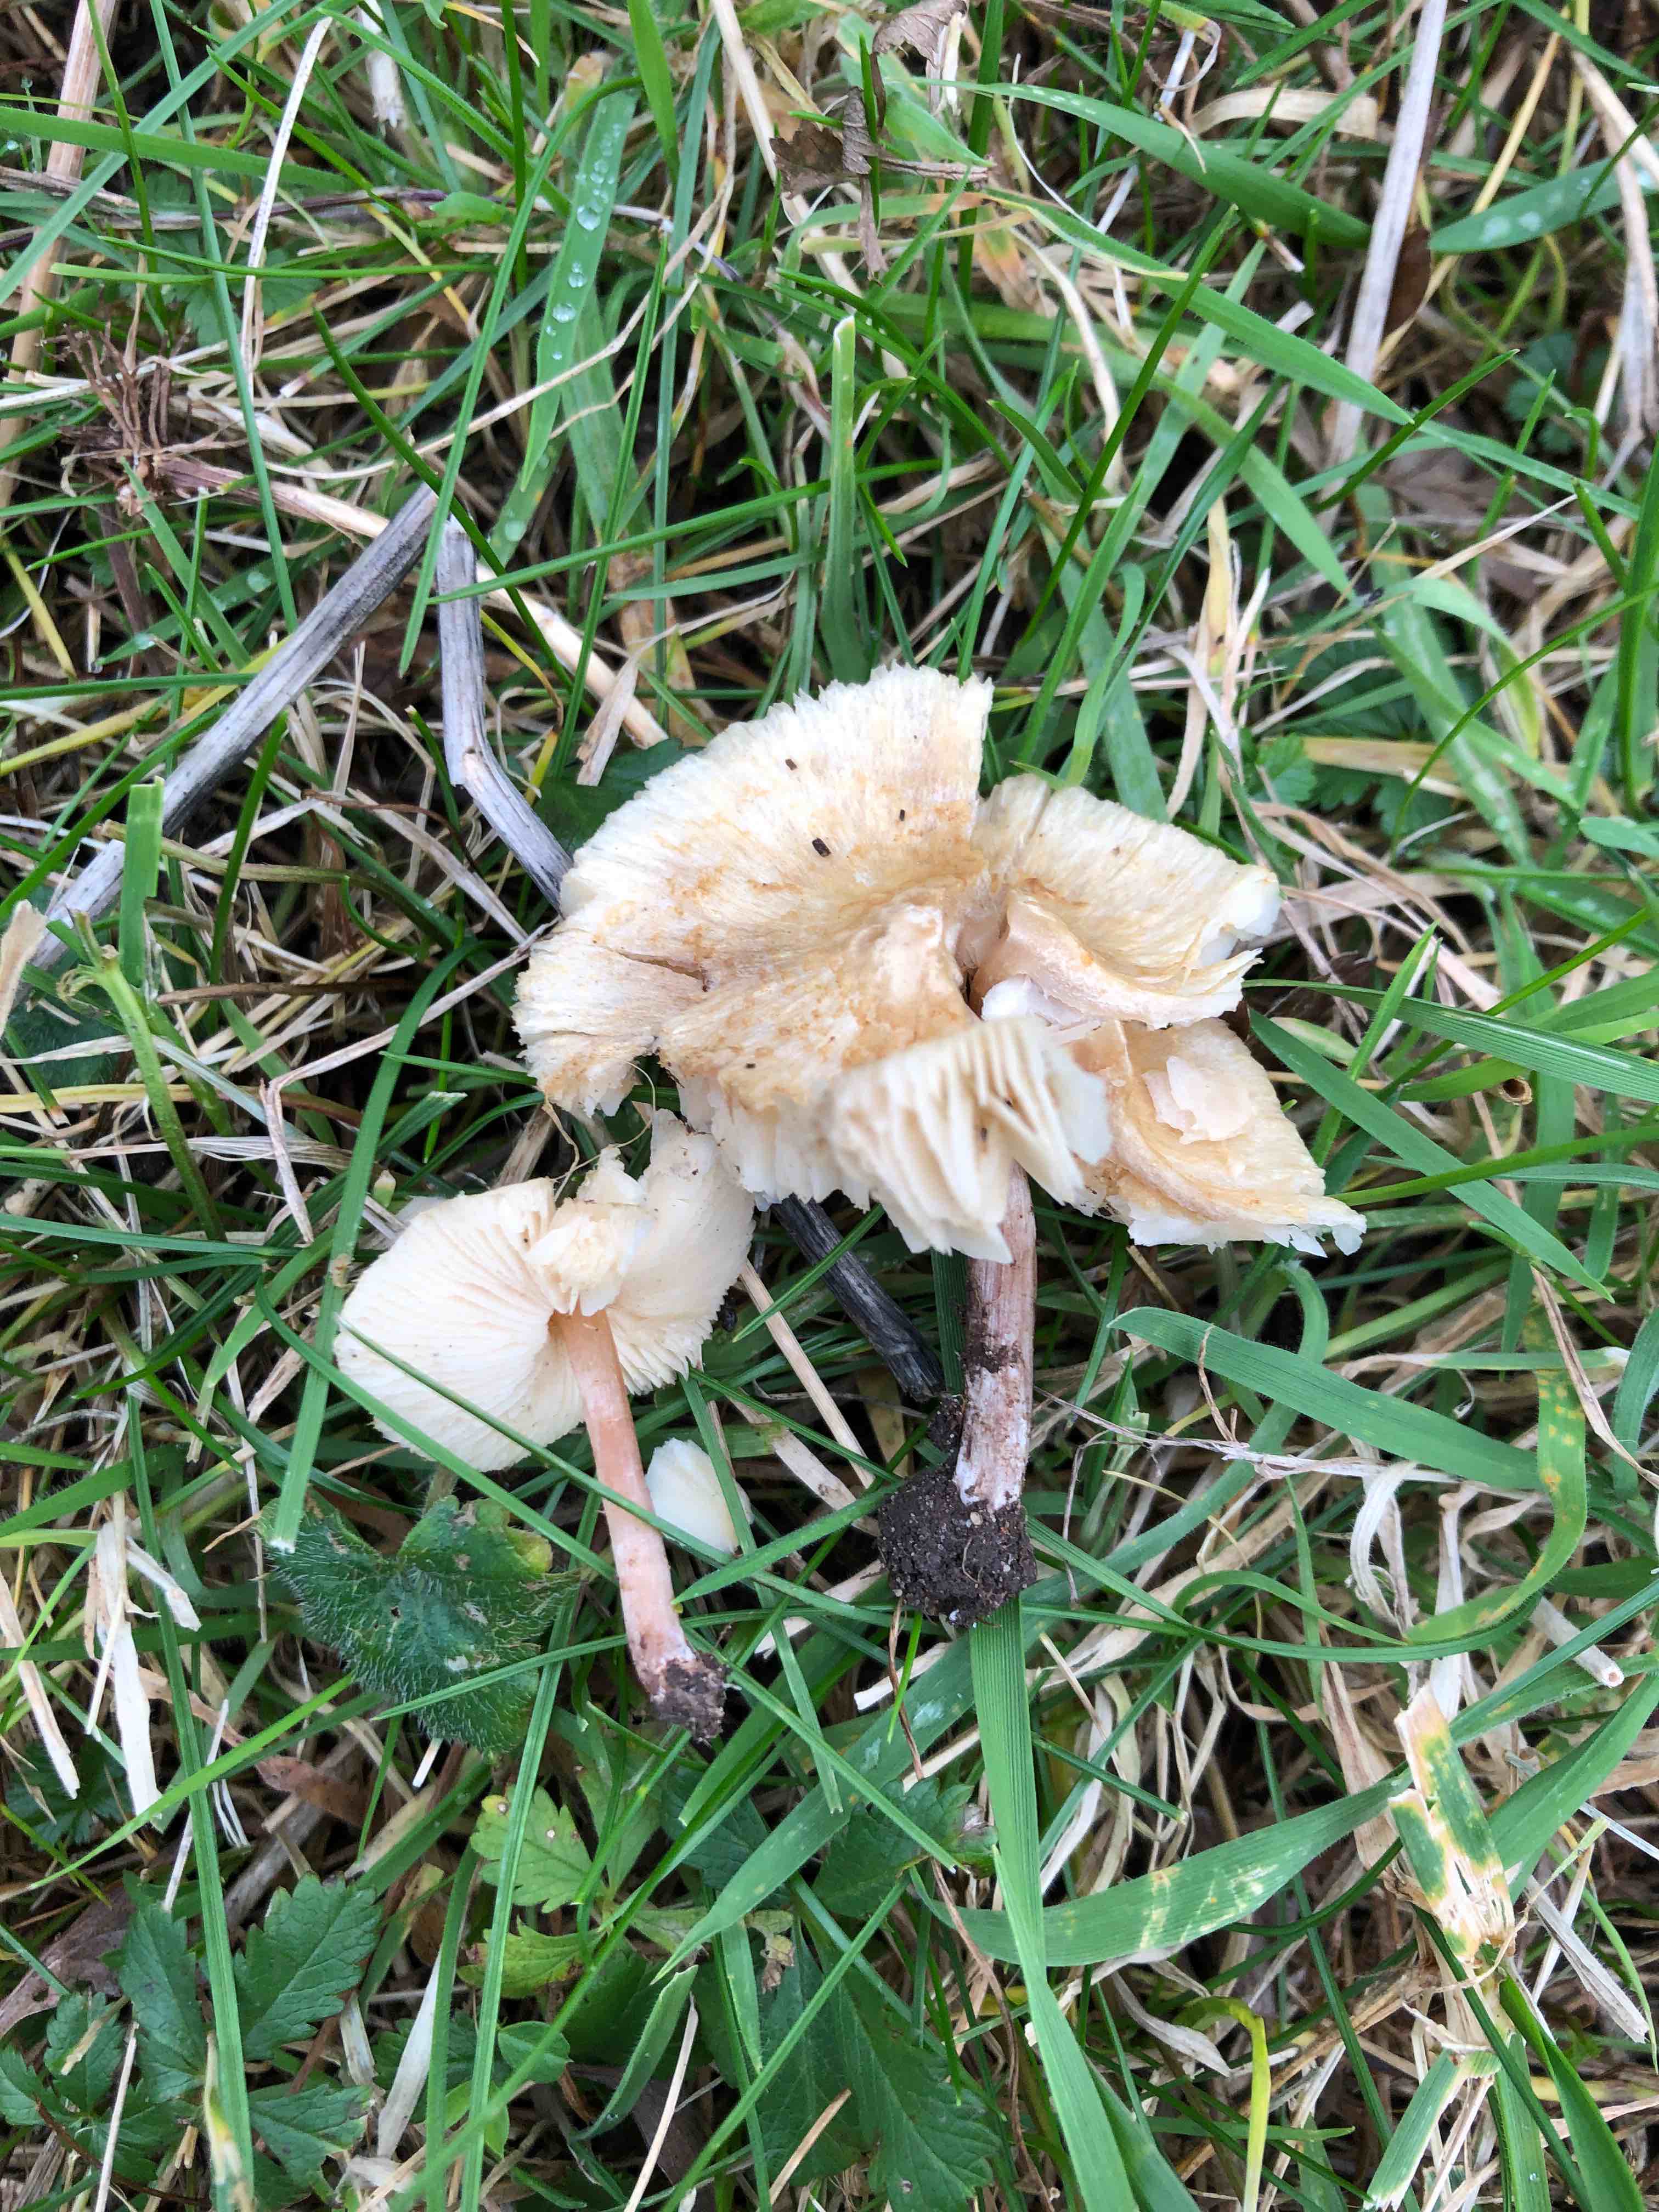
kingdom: Fungi
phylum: Basidiomycota
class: Agaricomycetes
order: Agaricales
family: Agaricaceae
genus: Lepiota
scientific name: Lepiota cristata
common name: stinkende parasolhat
